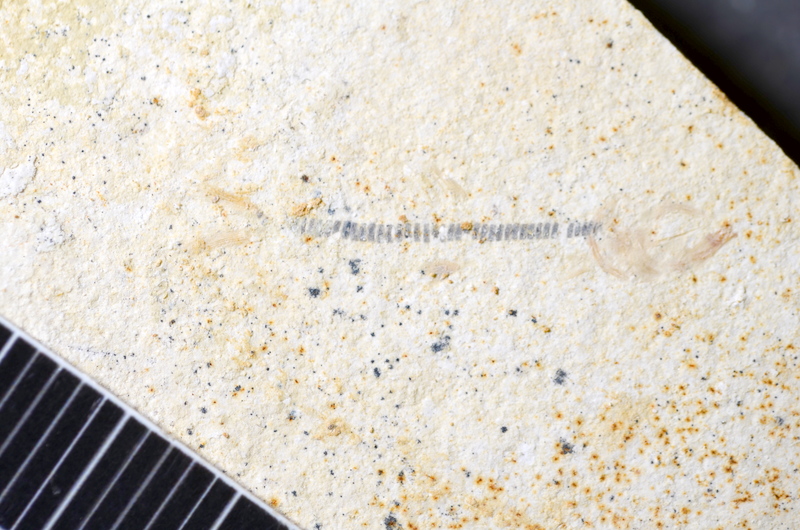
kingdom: Animalia
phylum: Chordata
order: Salmoniformes
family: Orthogonikleithridae
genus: Orthogonikleithrus
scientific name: Orthogonikleithrus hoelli
